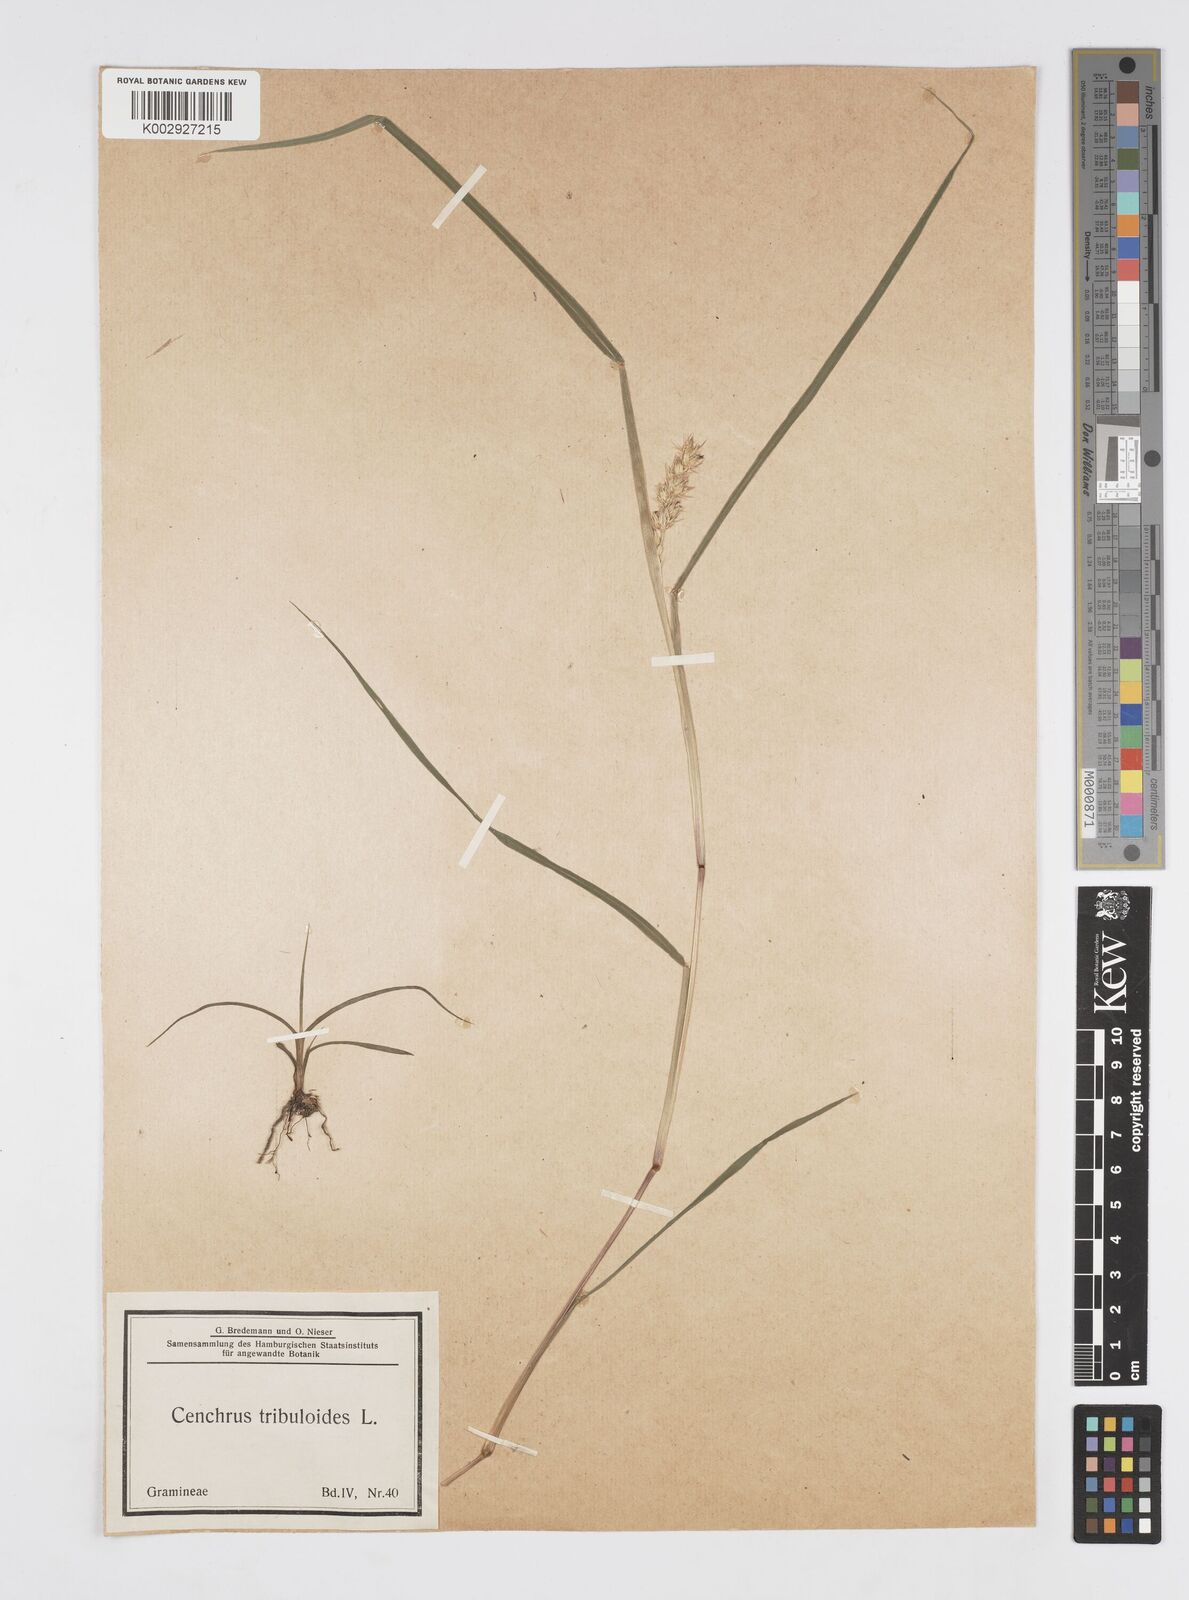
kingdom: Plantae
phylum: Tracheophyta
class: Liliopsida
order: Poales
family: Poaceae
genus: Cenchrus
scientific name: Cenchrus longispinus
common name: Mat sandbur
